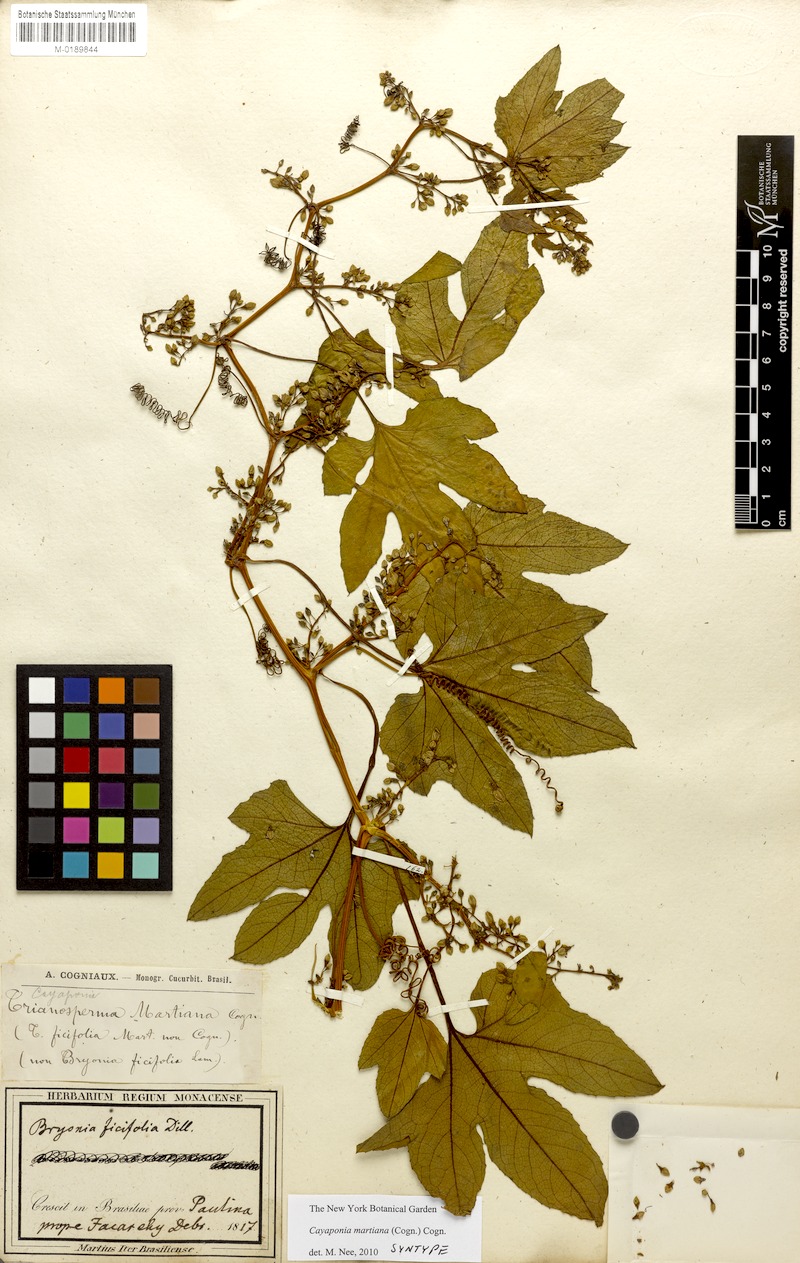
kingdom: Plantae
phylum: Tracheophyta
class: Magnoliopsida
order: Cucurbitales
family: Cucurbitaceae
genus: Cayaponia
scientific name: Cayaponia martiana
